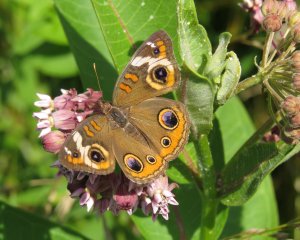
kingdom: Animalia
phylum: Arthropoda
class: Insecta
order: Lepidoptera
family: Nymphalidae
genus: Junonia
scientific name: Junonia coenia
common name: Common Buckeye
